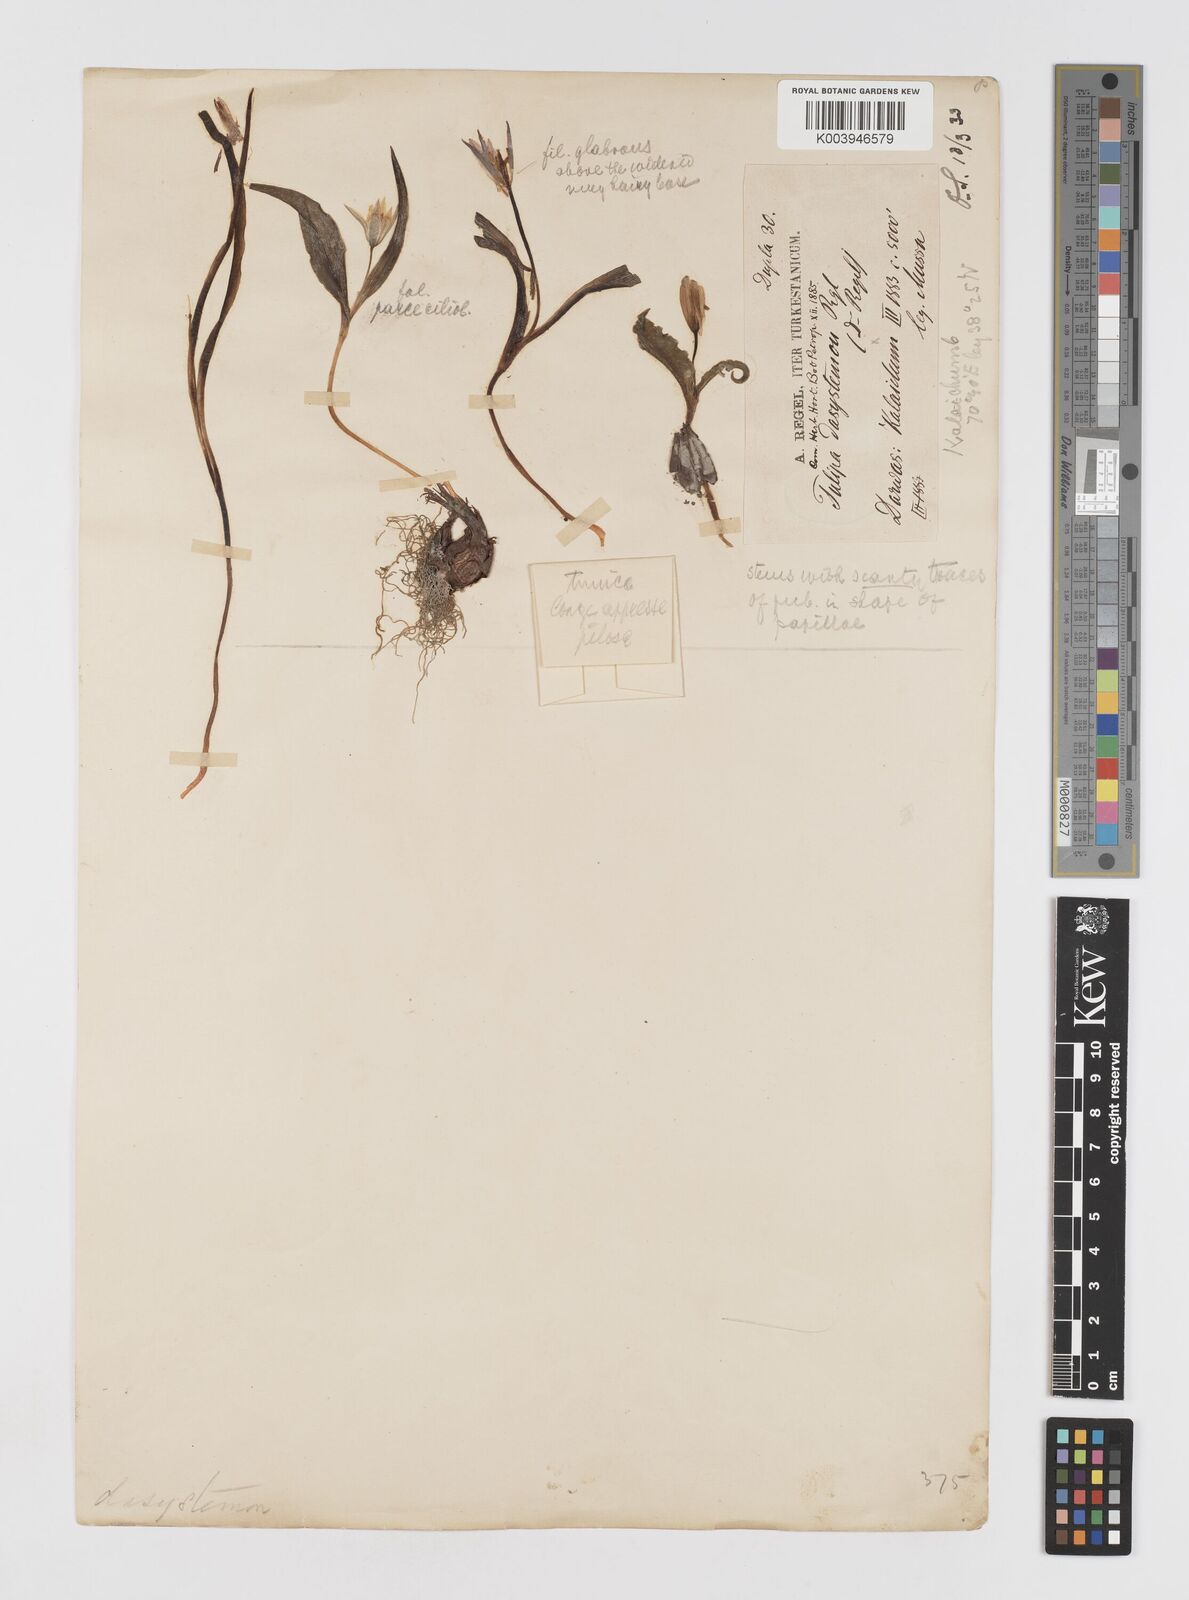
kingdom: Plantae
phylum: Tracheophyta
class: Liliopsida
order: Liliales
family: Liliaceae
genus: Tulipa
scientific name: Tulipa dasystemon
